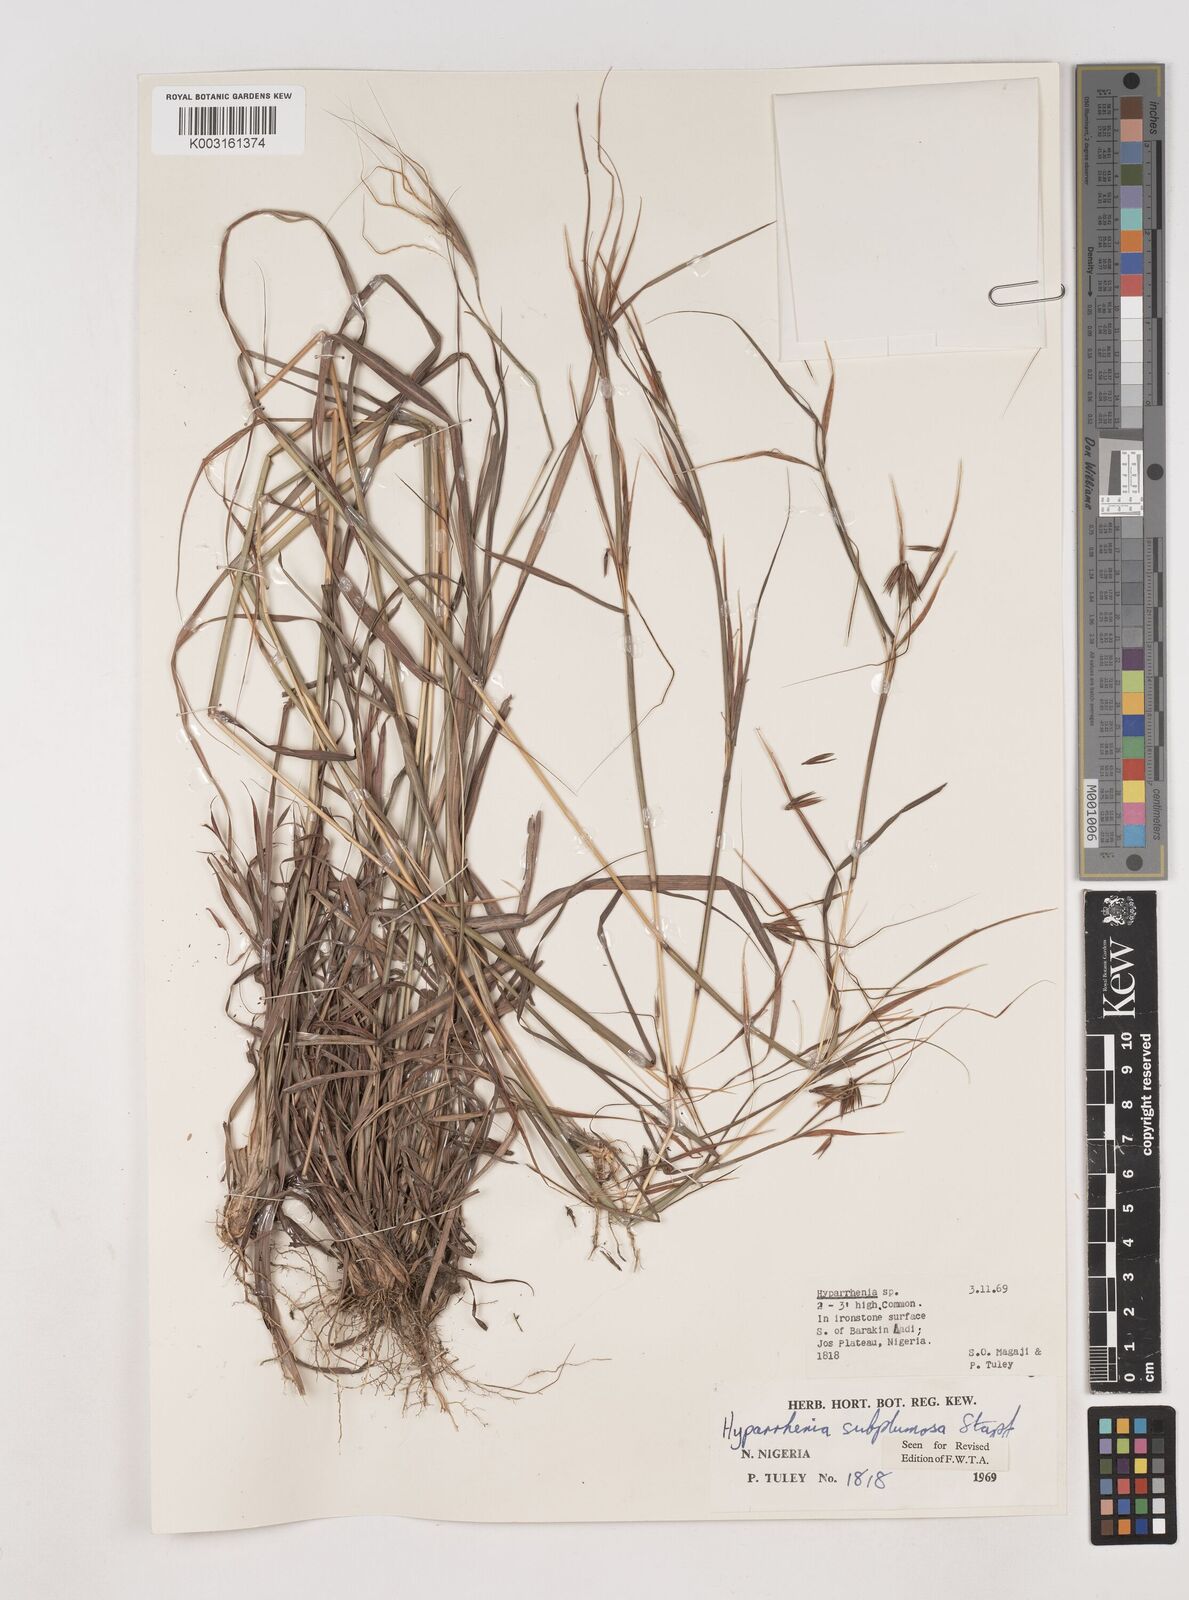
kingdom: Plantae
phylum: Tracheophyta
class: Liliopsida
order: Poales
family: Poaceae
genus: Hyparrhenia
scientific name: Hyparrhenia subplumosa
